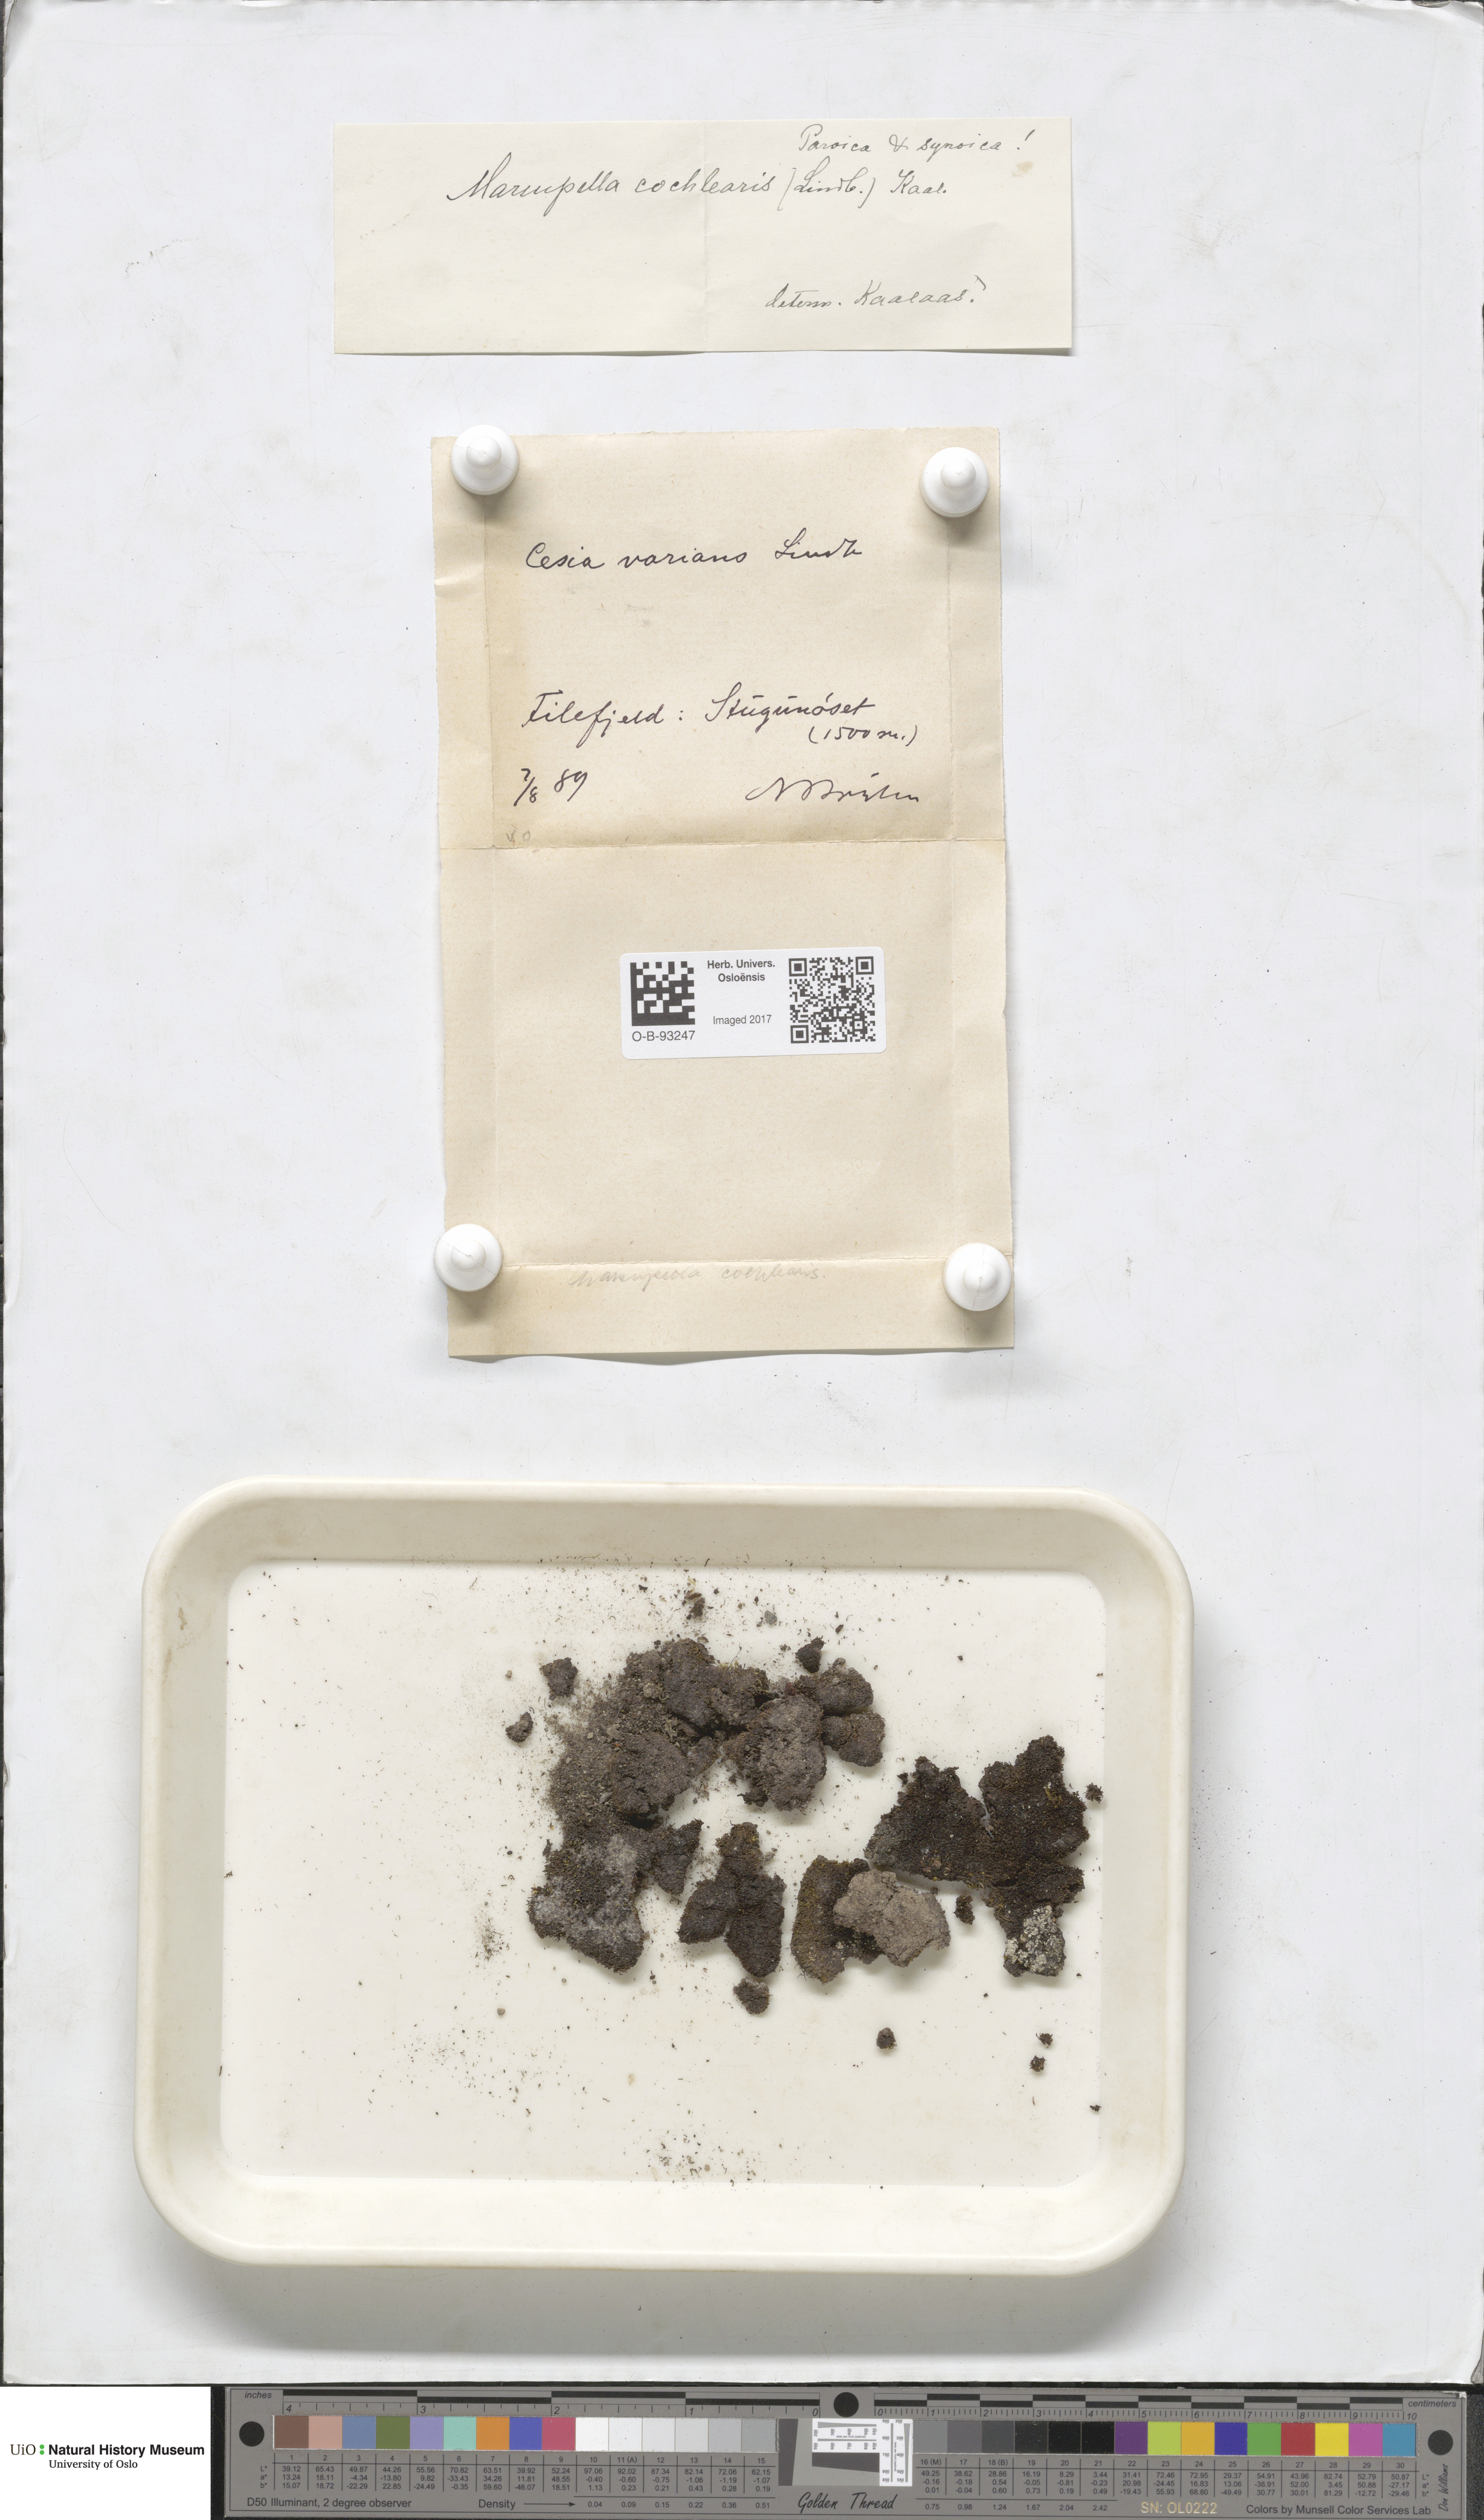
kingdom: Plantae
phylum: Marchantiophyta
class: Jungermanniopsida
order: Jungermanniales
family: Gymnomitriaceae
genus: Gymnomitrion
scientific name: Gymnomitrion brevissimum
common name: Snow rustwort
